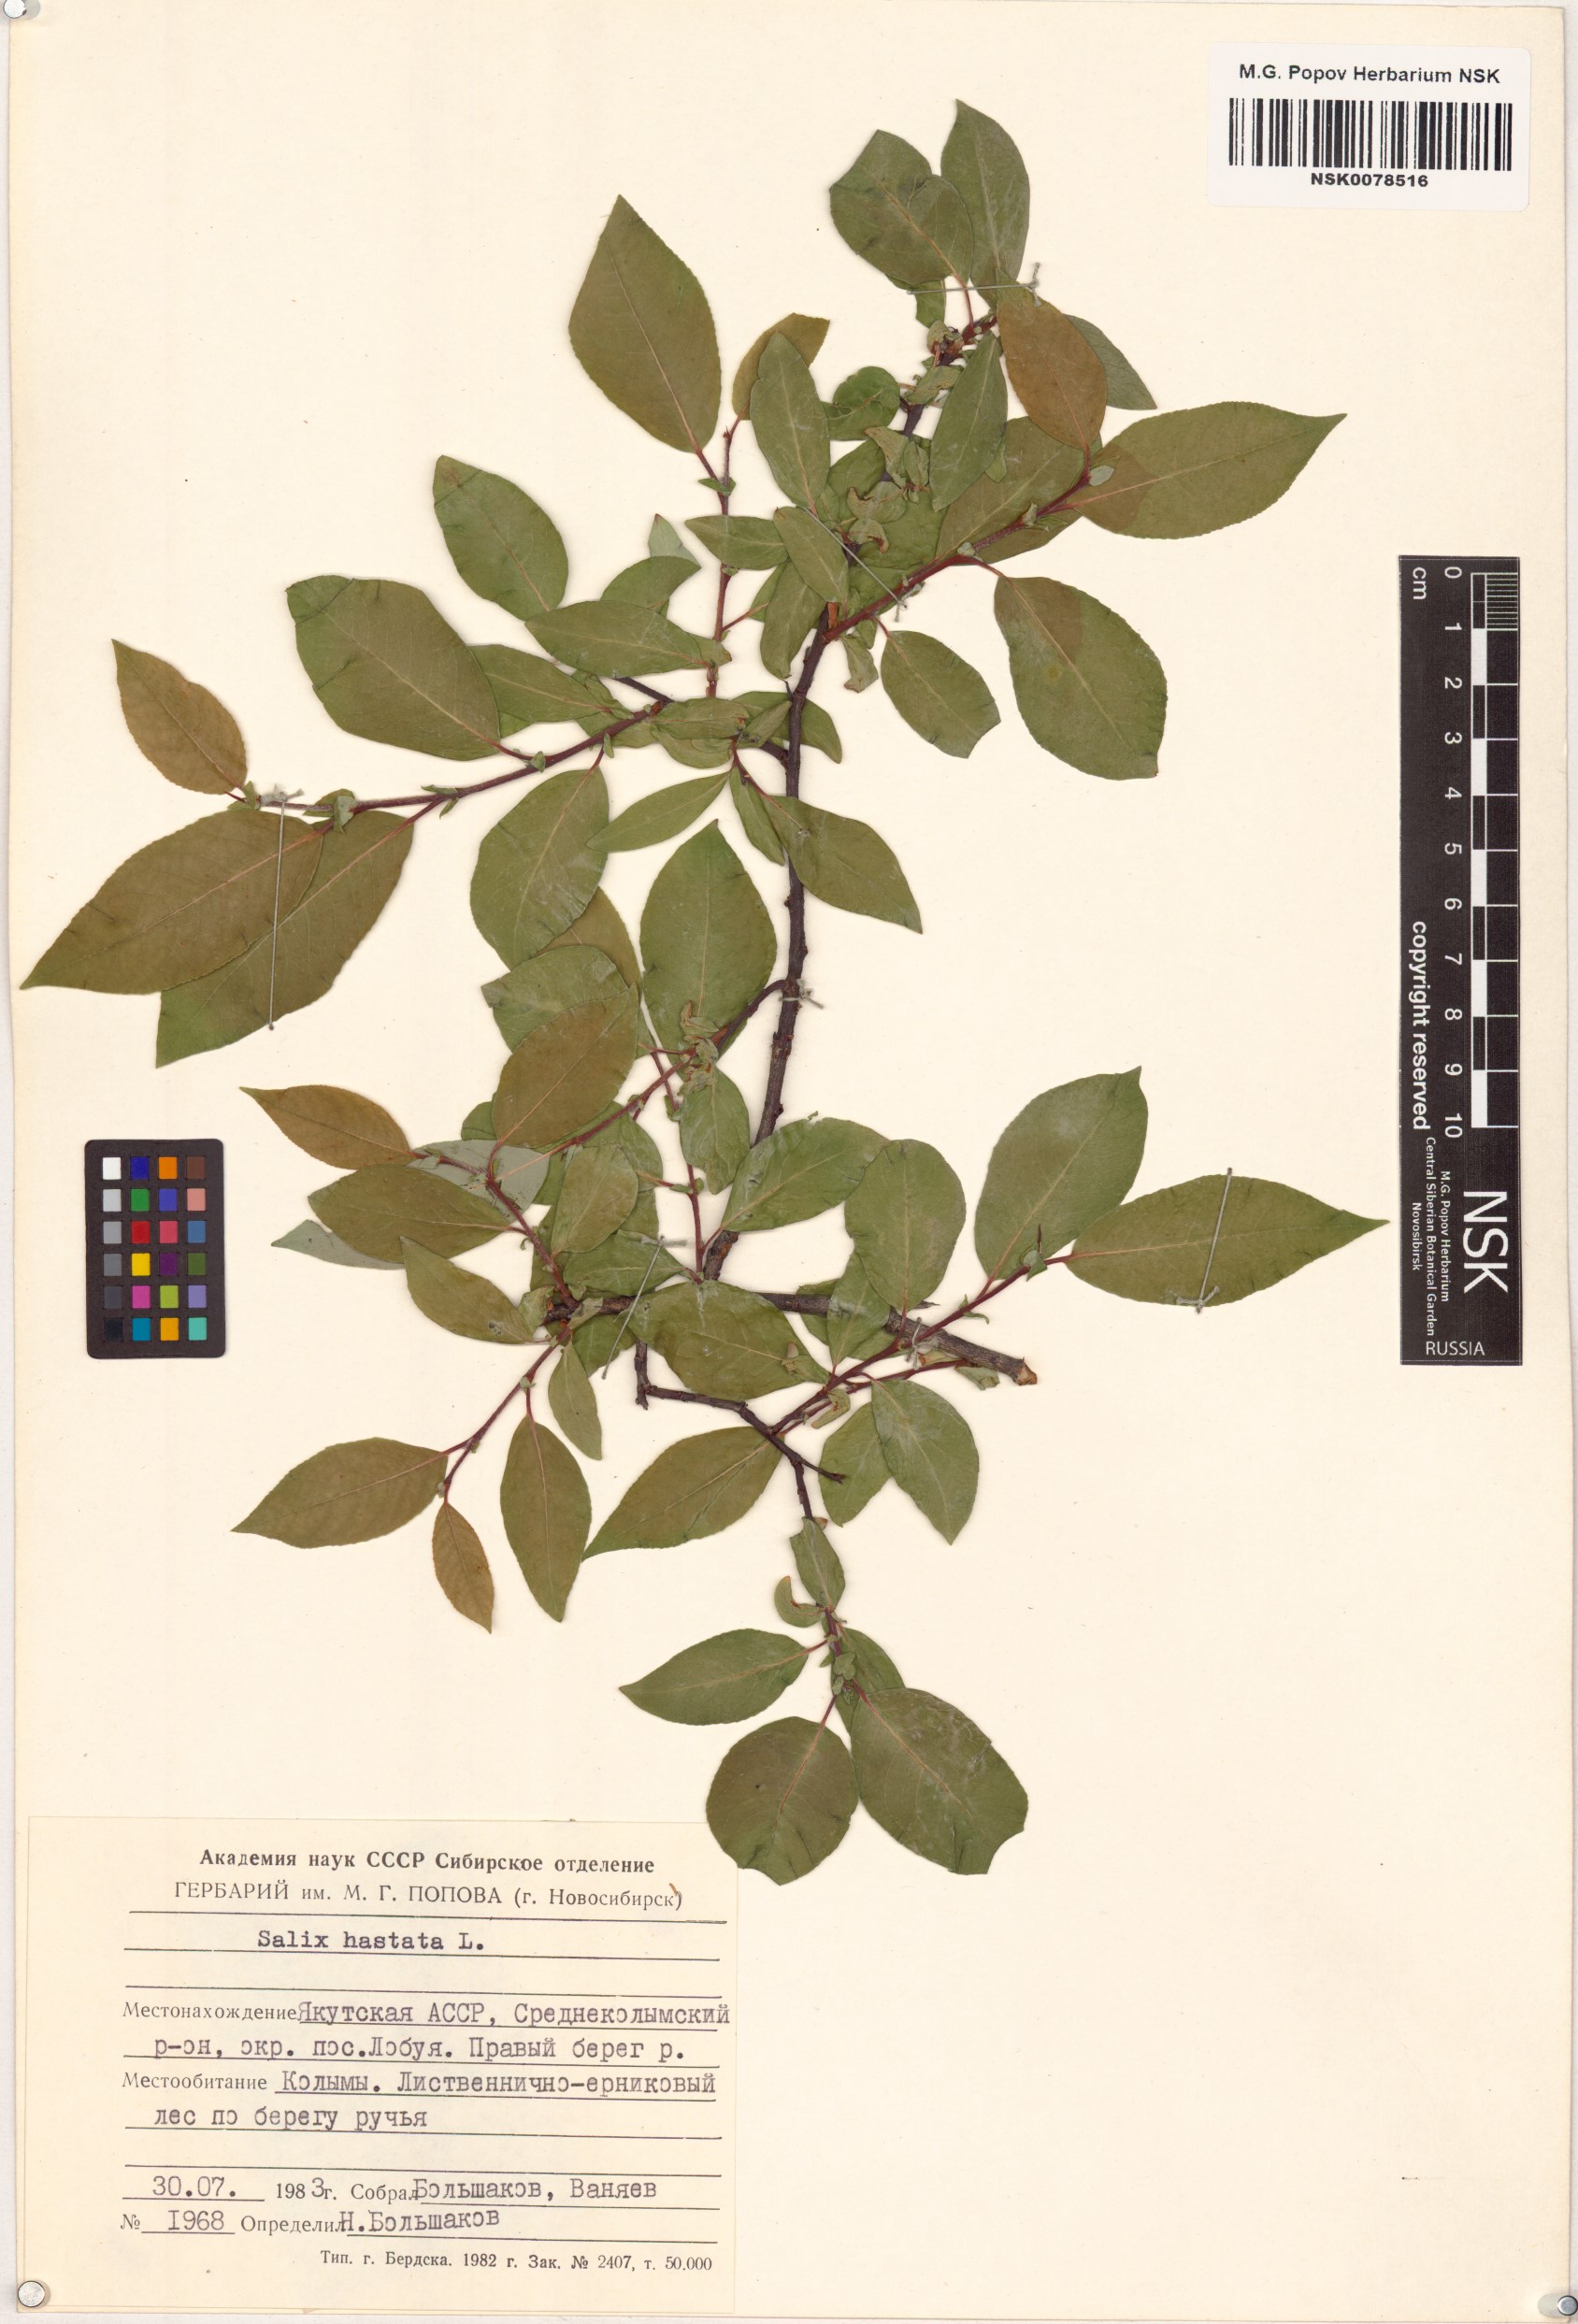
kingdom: Plantae
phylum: Tracheophyta
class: Magnoliopsida
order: Malpighiales
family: Salicaceae
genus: Salix
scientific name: Salix hastata
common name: Halberd willow
